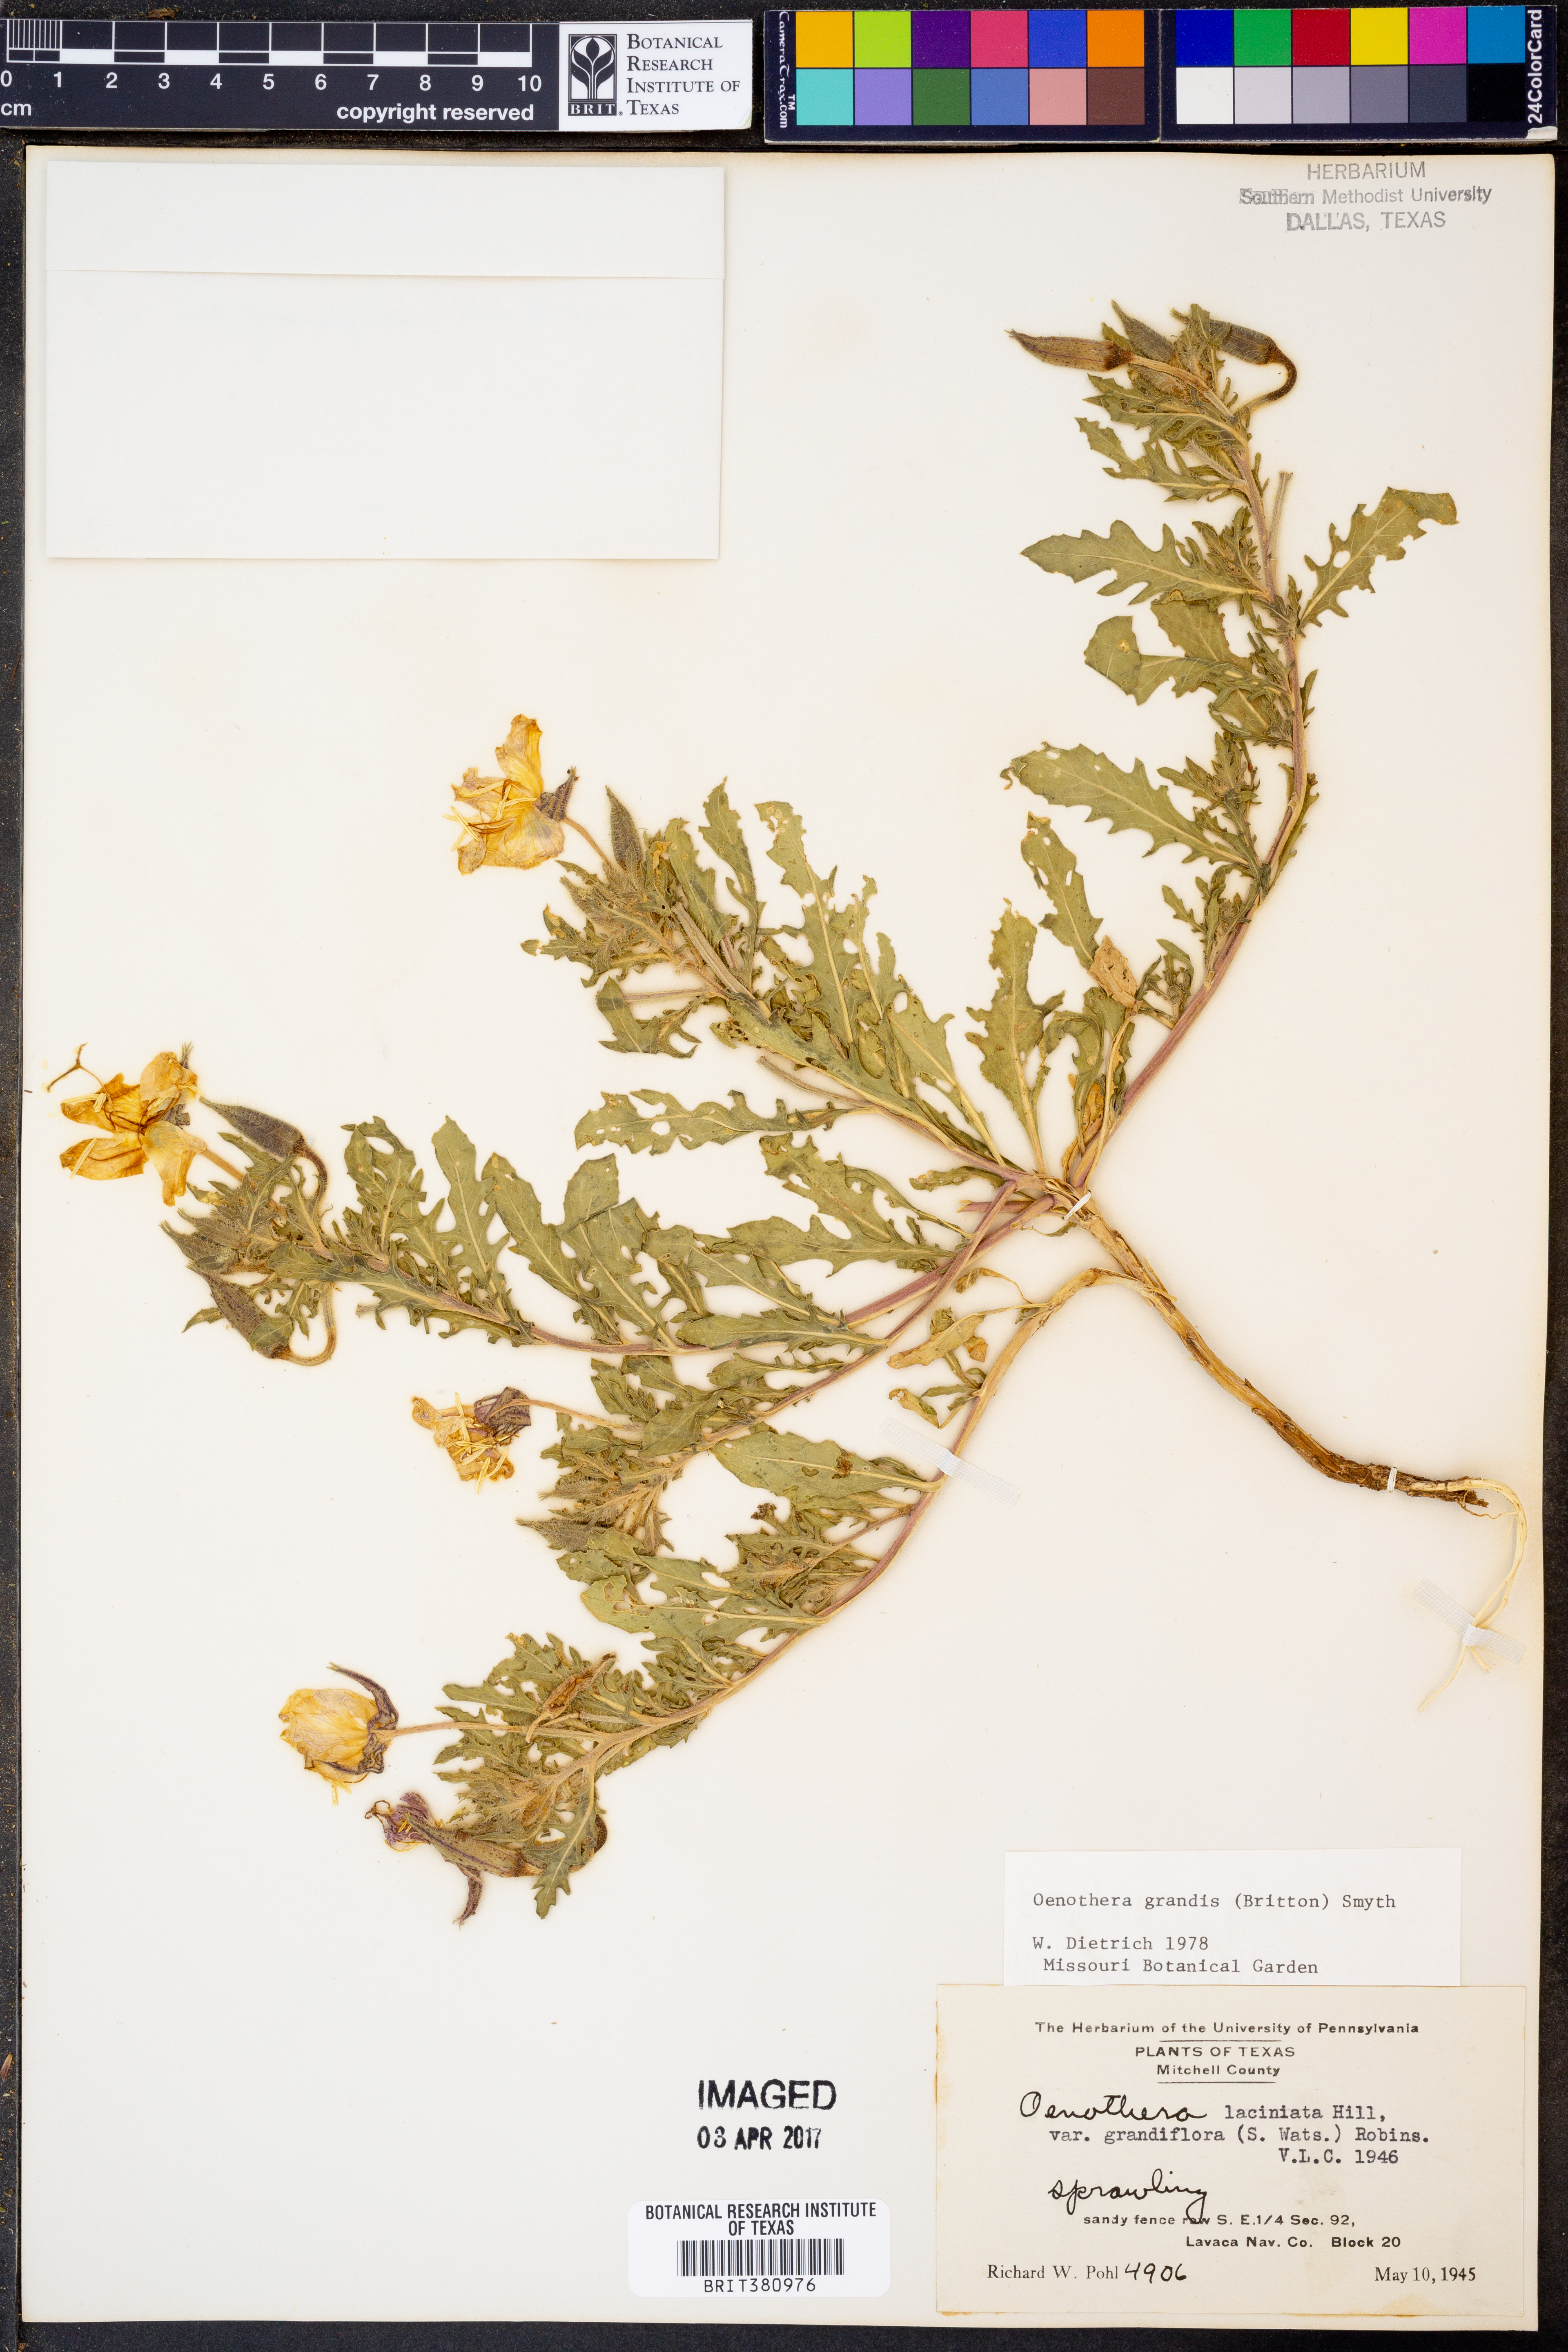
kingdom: Plantae
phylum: Tracheophyta
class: Magnoliopsida
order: Myrtales
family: Onagraceae
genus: Oenothera
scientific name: Oenothera grandis
